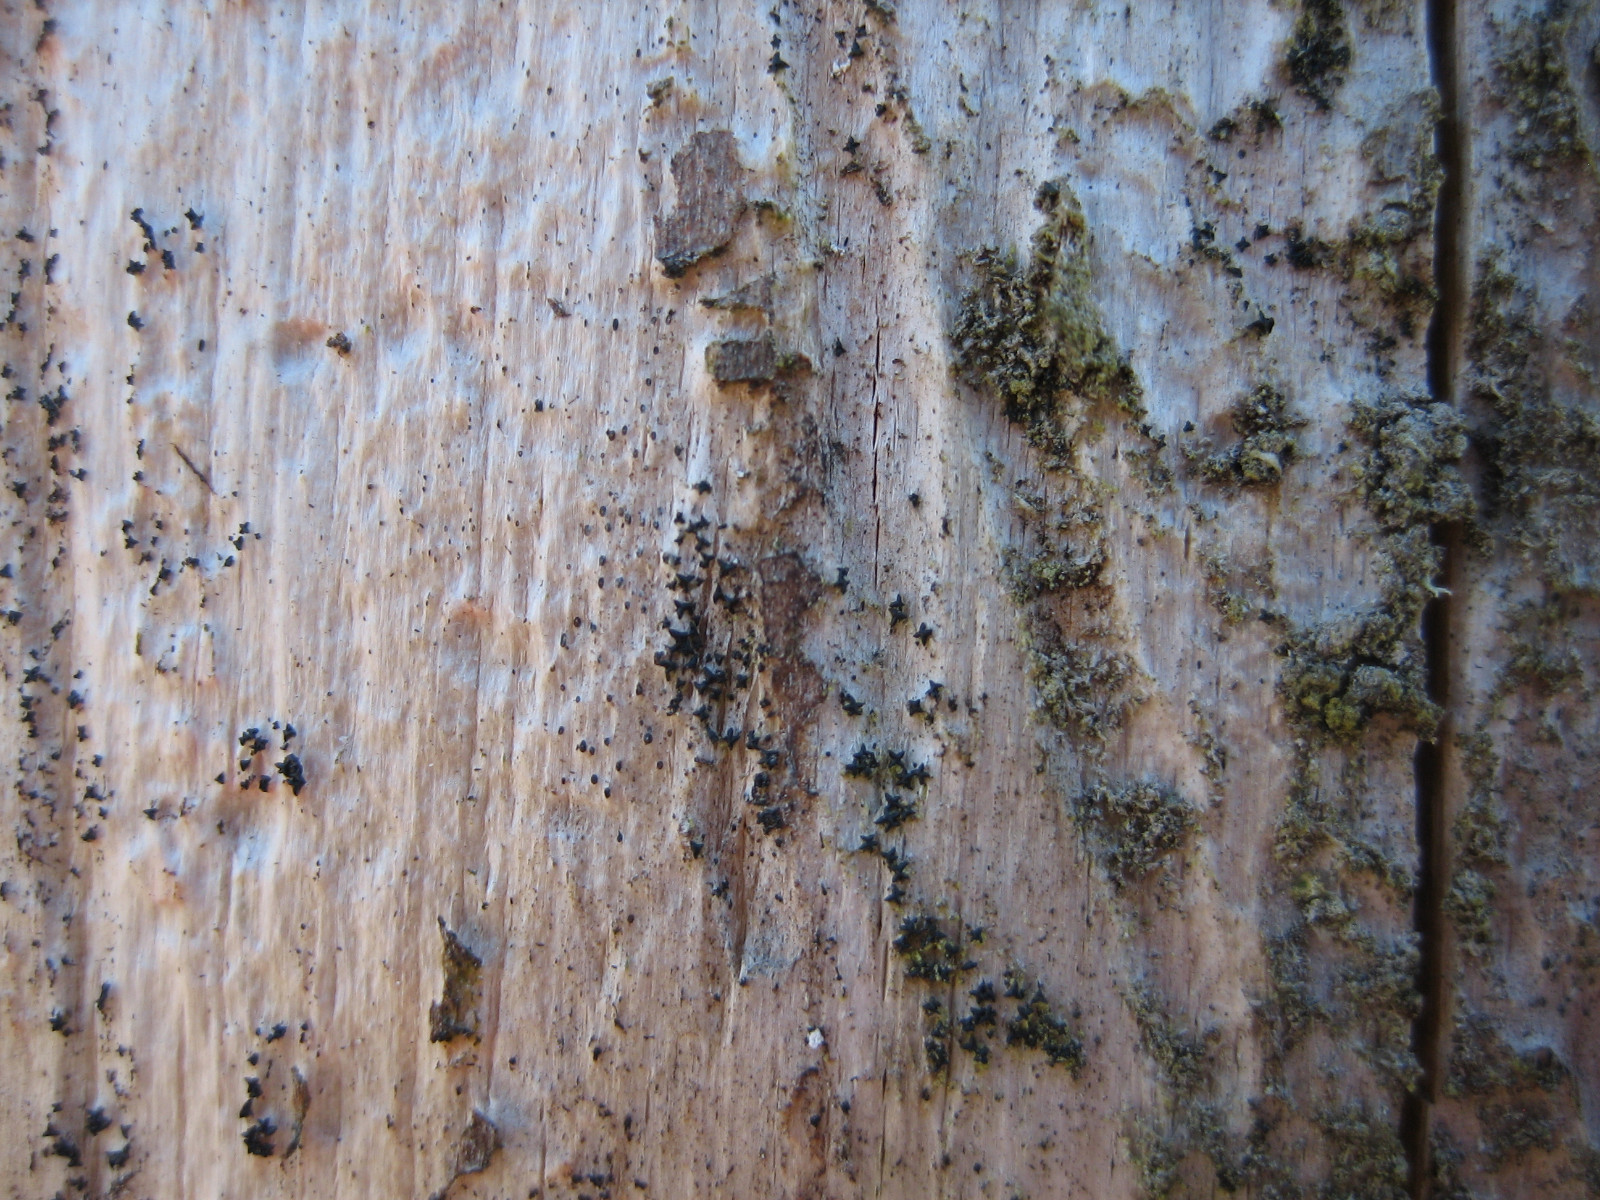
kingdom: Fungi
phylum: Ascomycota
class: Dothideomycetes
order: Mytilinidiales
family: Mytilinidiaceae
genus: Actidium
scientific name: Actidium hysterioides
